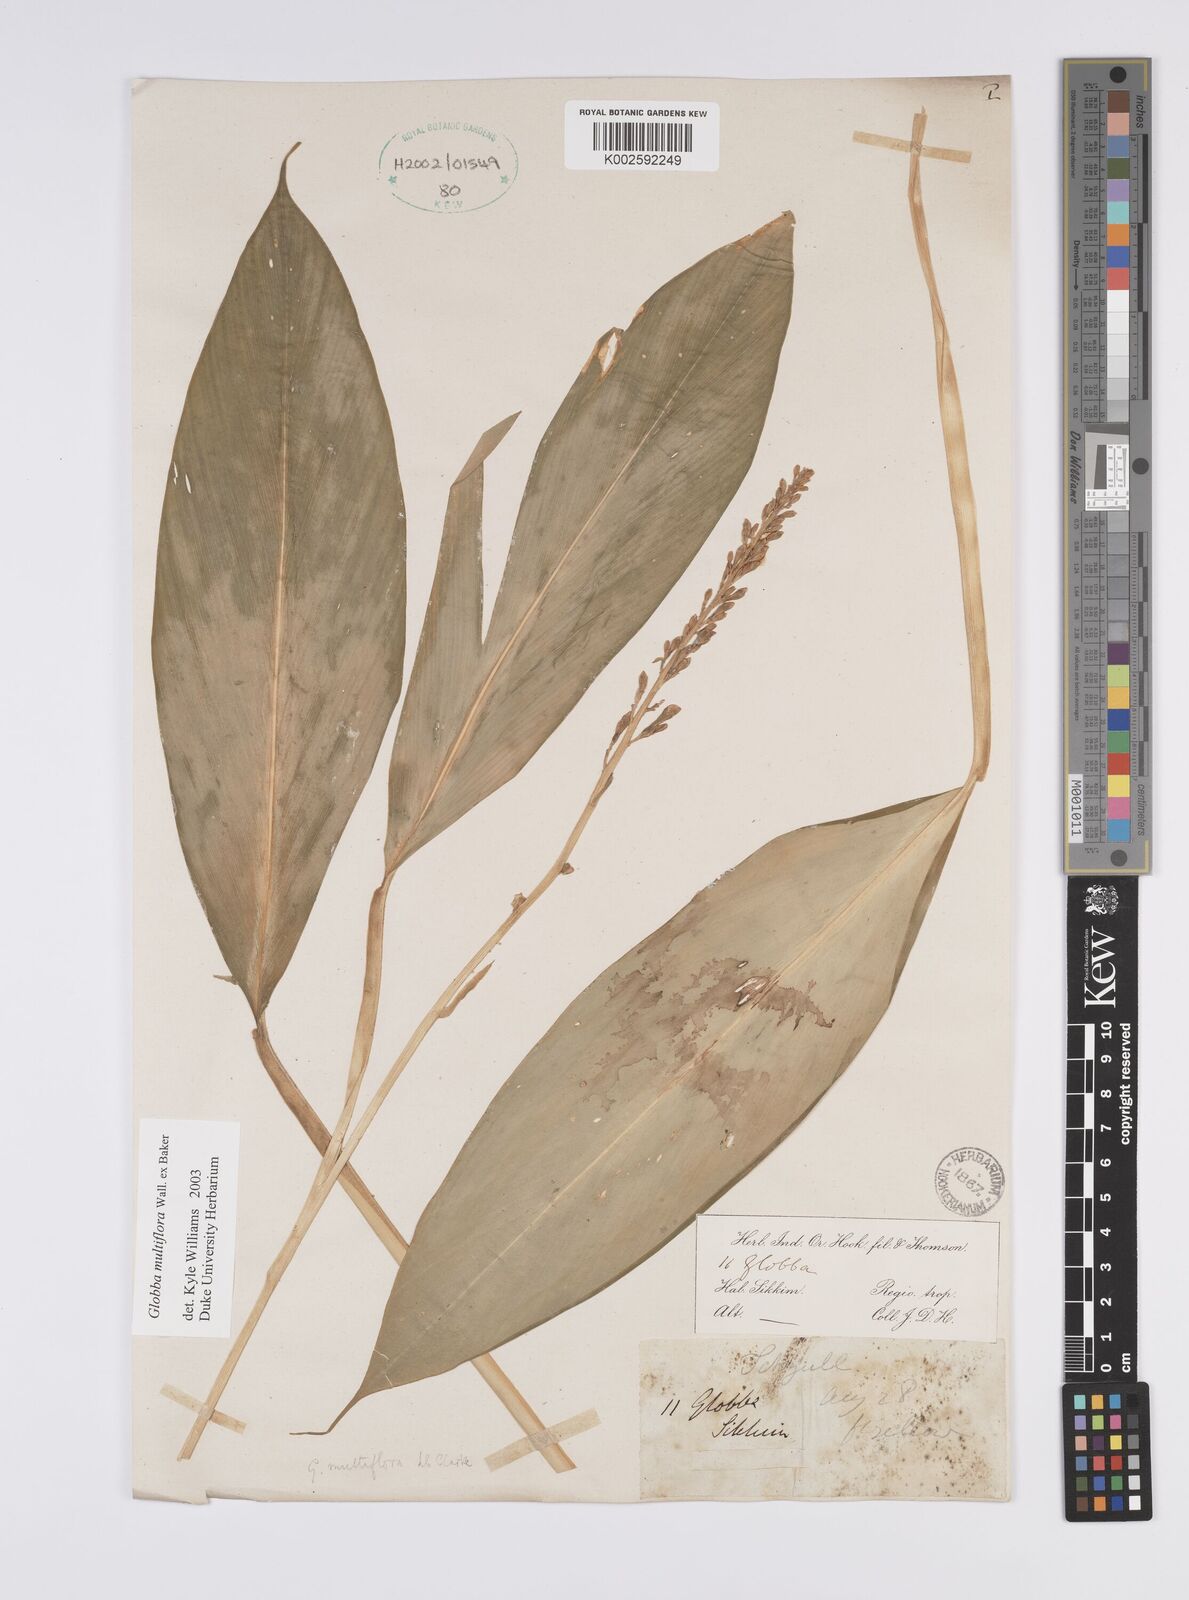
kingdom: Plantae
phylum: Tracheophyta
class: Liliopsida
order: Zingiberales
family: Zingiberaceae
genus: Globba
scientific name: Globba multiflora
